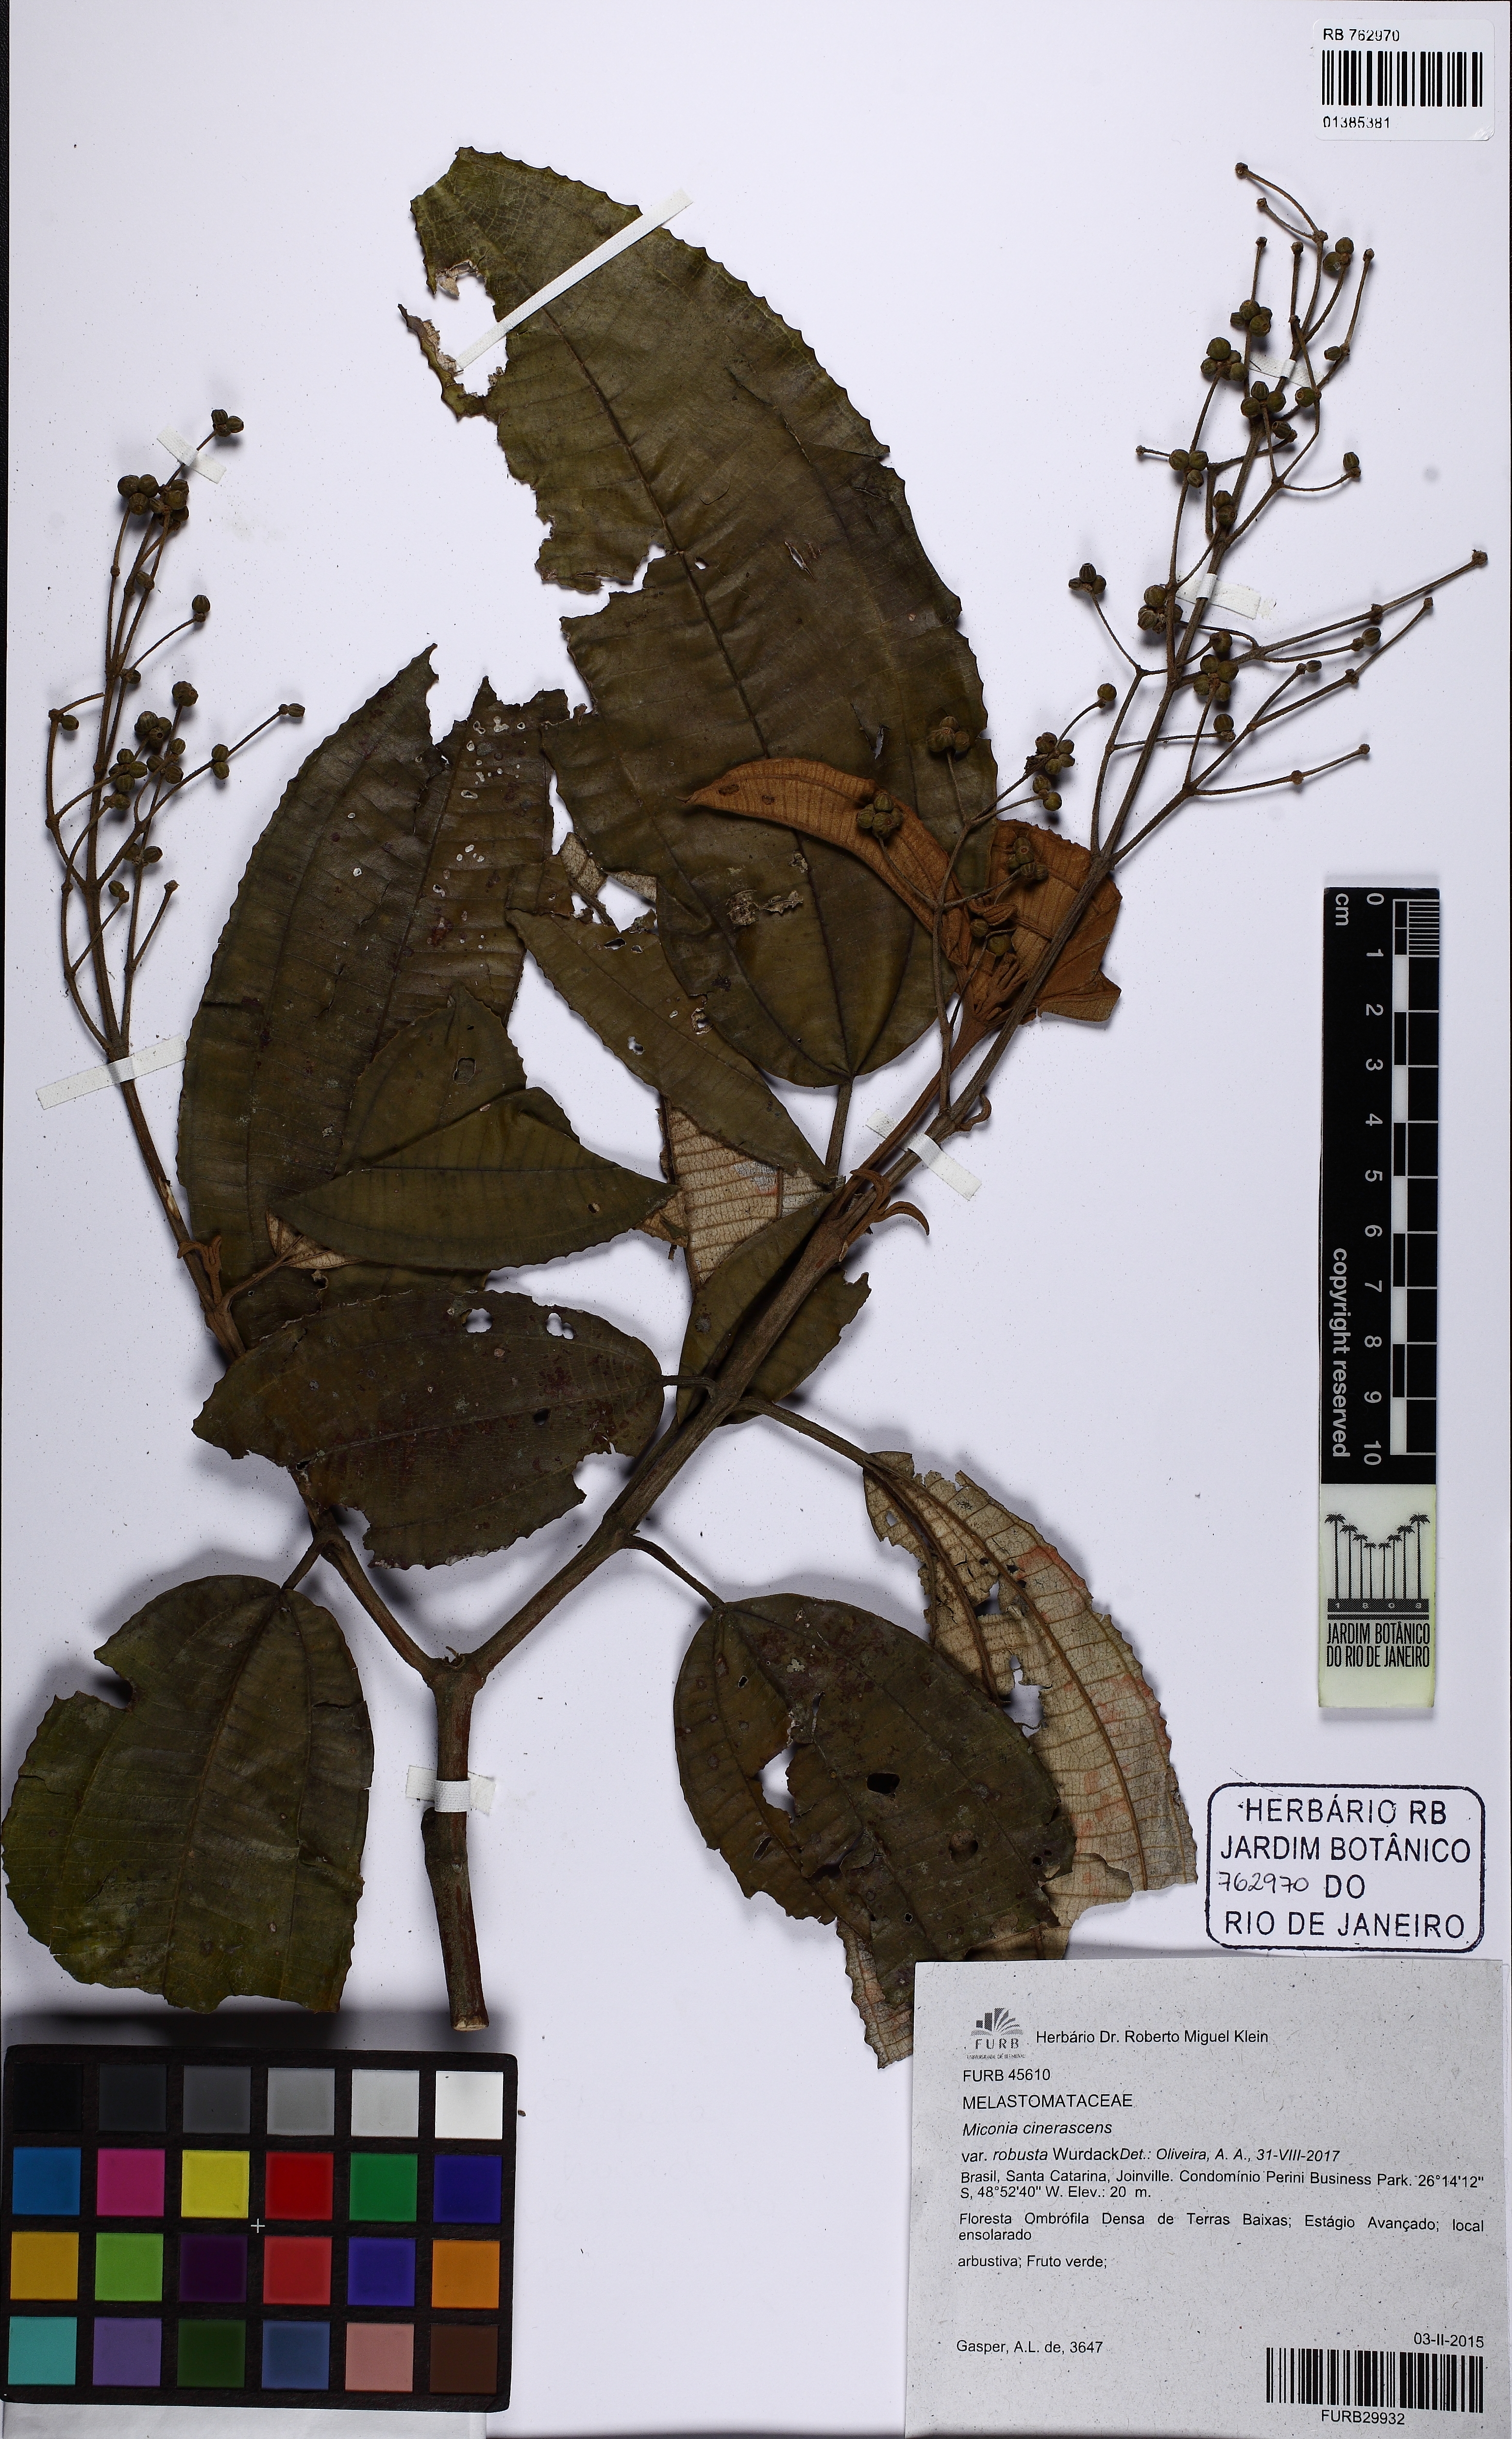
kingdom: Plantae
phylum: Tracheophyta
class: Magnoliopsida
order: Myrtales
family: Melastomataceae
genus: Miconia
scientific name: Miconia cinerascens
